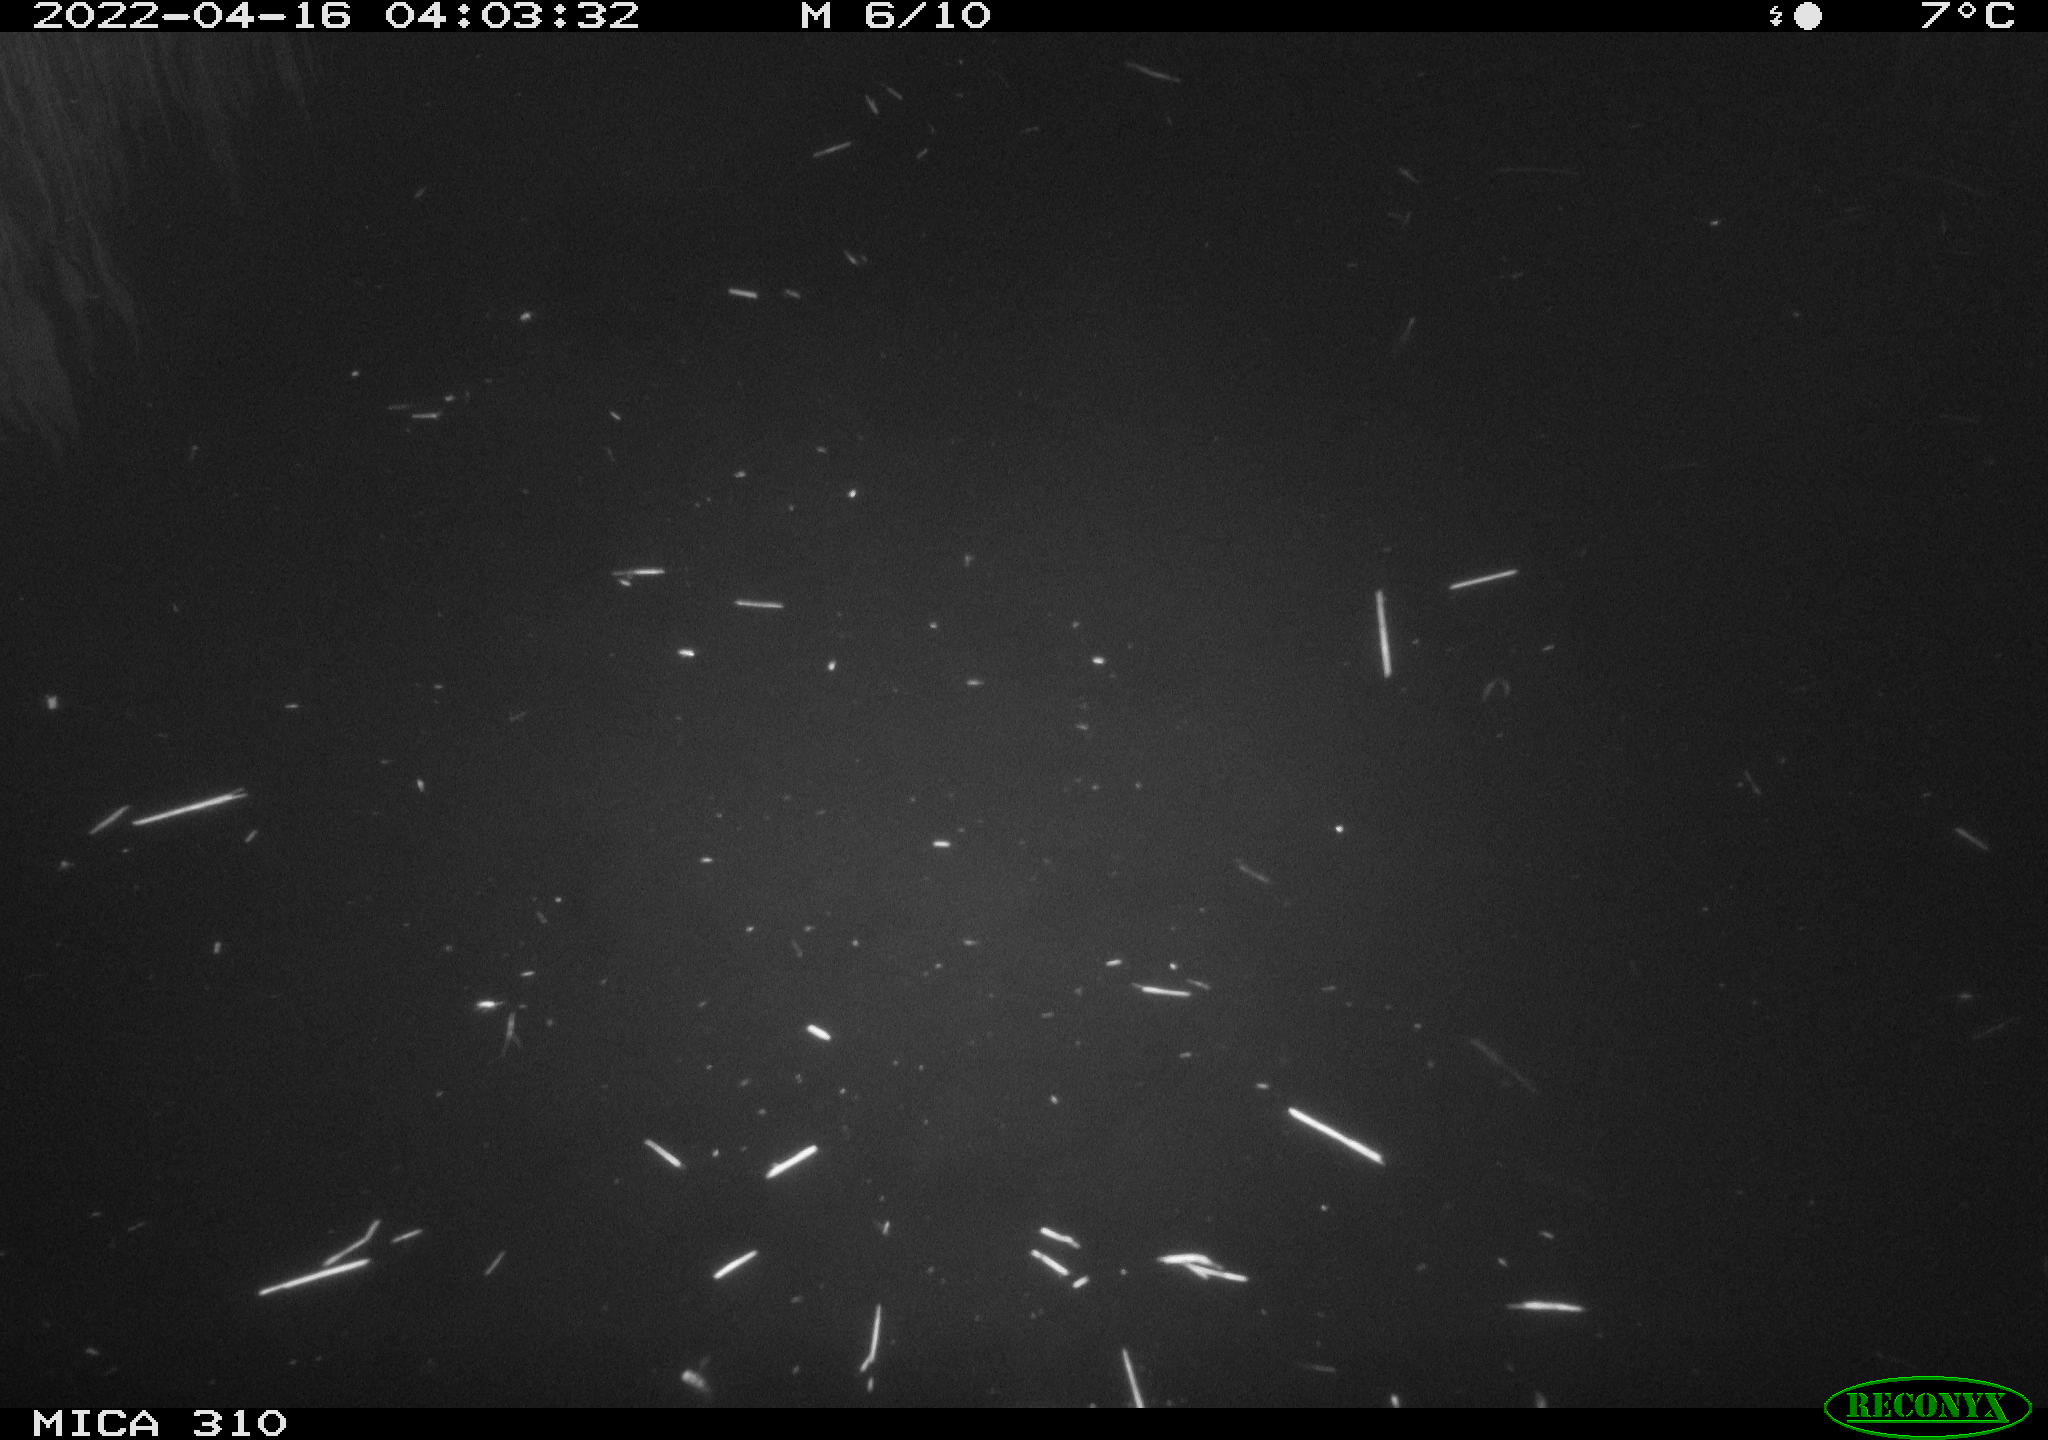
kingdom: Animalia
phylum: Chordata
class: Aves
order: Anseriformes
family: Anatidae
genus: Anas
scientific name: Anas platyrhynchos
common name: Mallard
